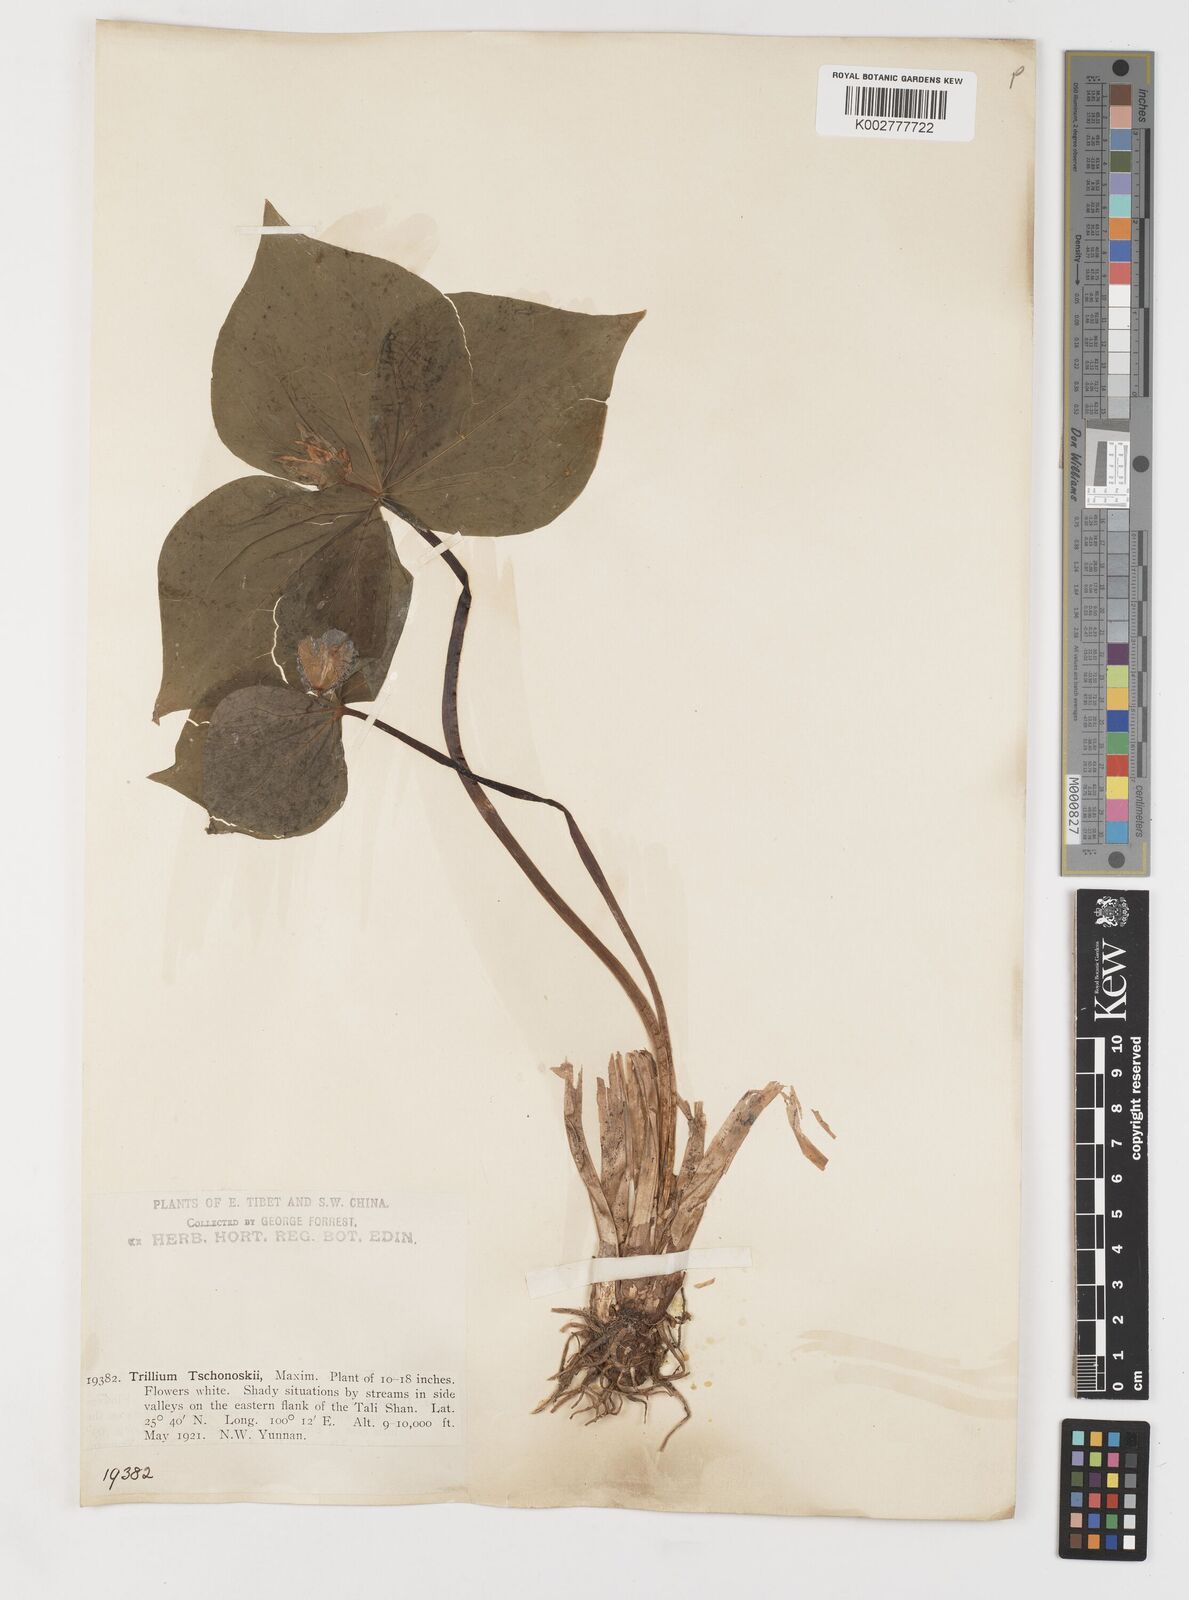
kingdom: Plantae
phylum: Tracheophyta
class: Liliopsida
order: Liliales
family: Melanthiaceae
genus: Trillium
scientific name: Trillium tschonoskii
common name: A pearl on head
